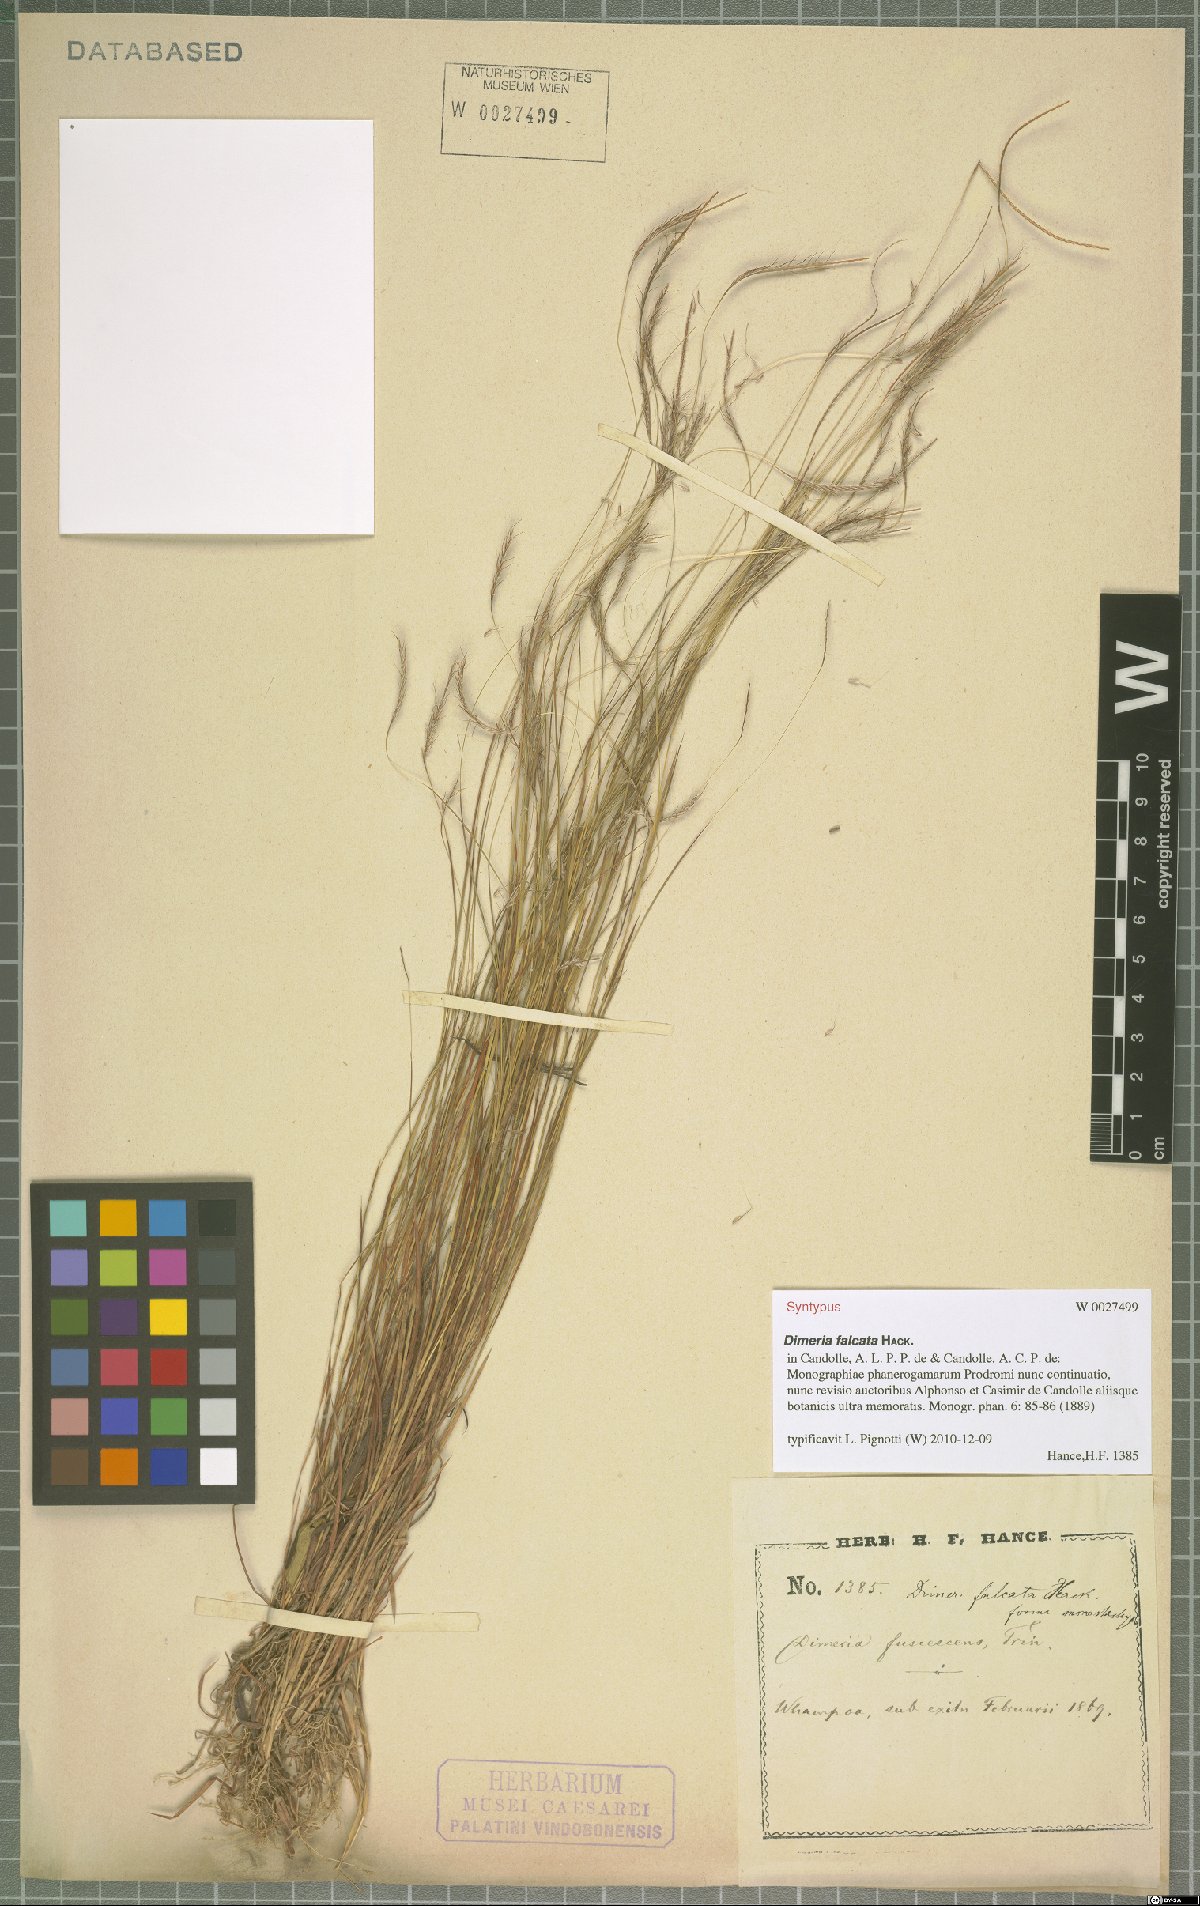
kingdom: Plantae
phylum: Tracheophyta
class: Liliopsida
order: Poales
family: Poaceae
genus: Dimeria
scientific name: Dimeria falcata
